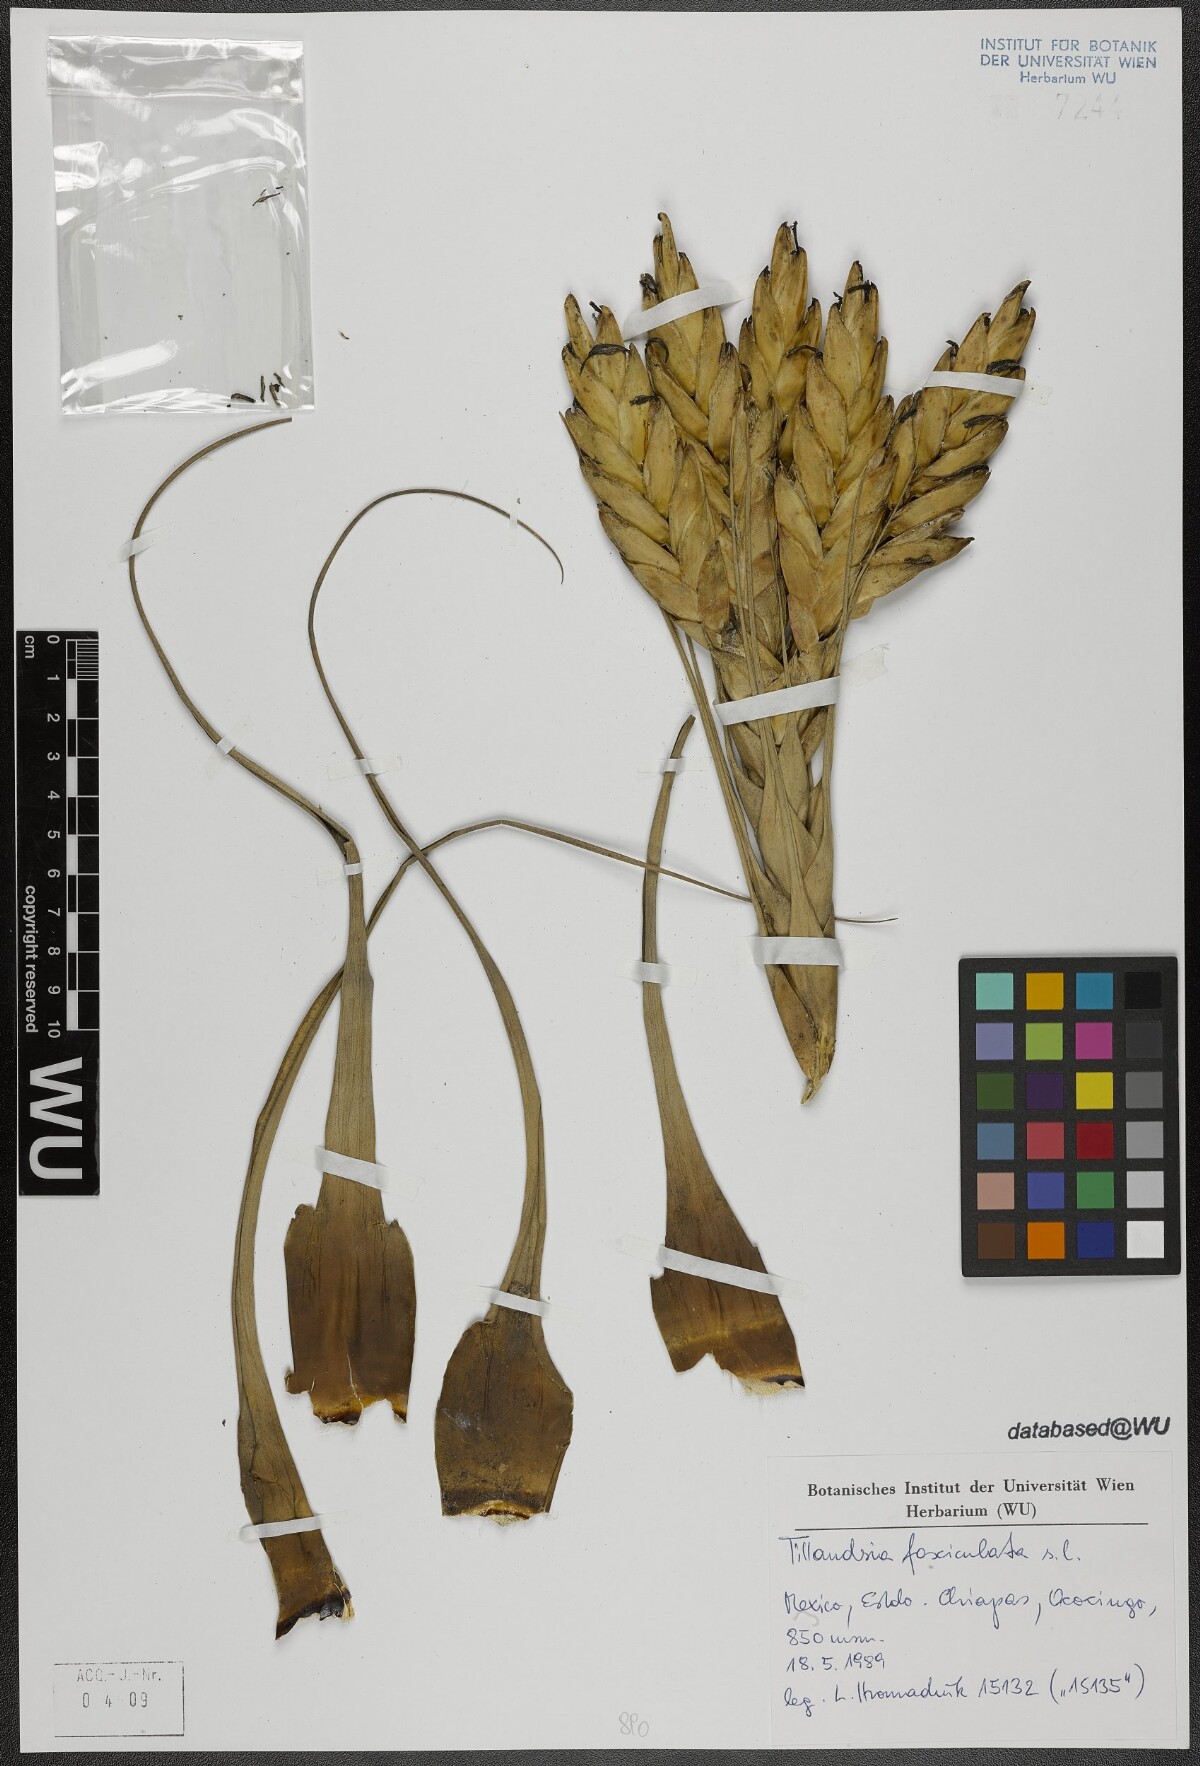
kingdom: Plantae
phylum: Tracheophyta
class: Liliopsida
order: Poales
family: Bromeliaceae
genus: Tillandsia
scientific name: Tillandsia fasciculata
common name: Giant airplant
